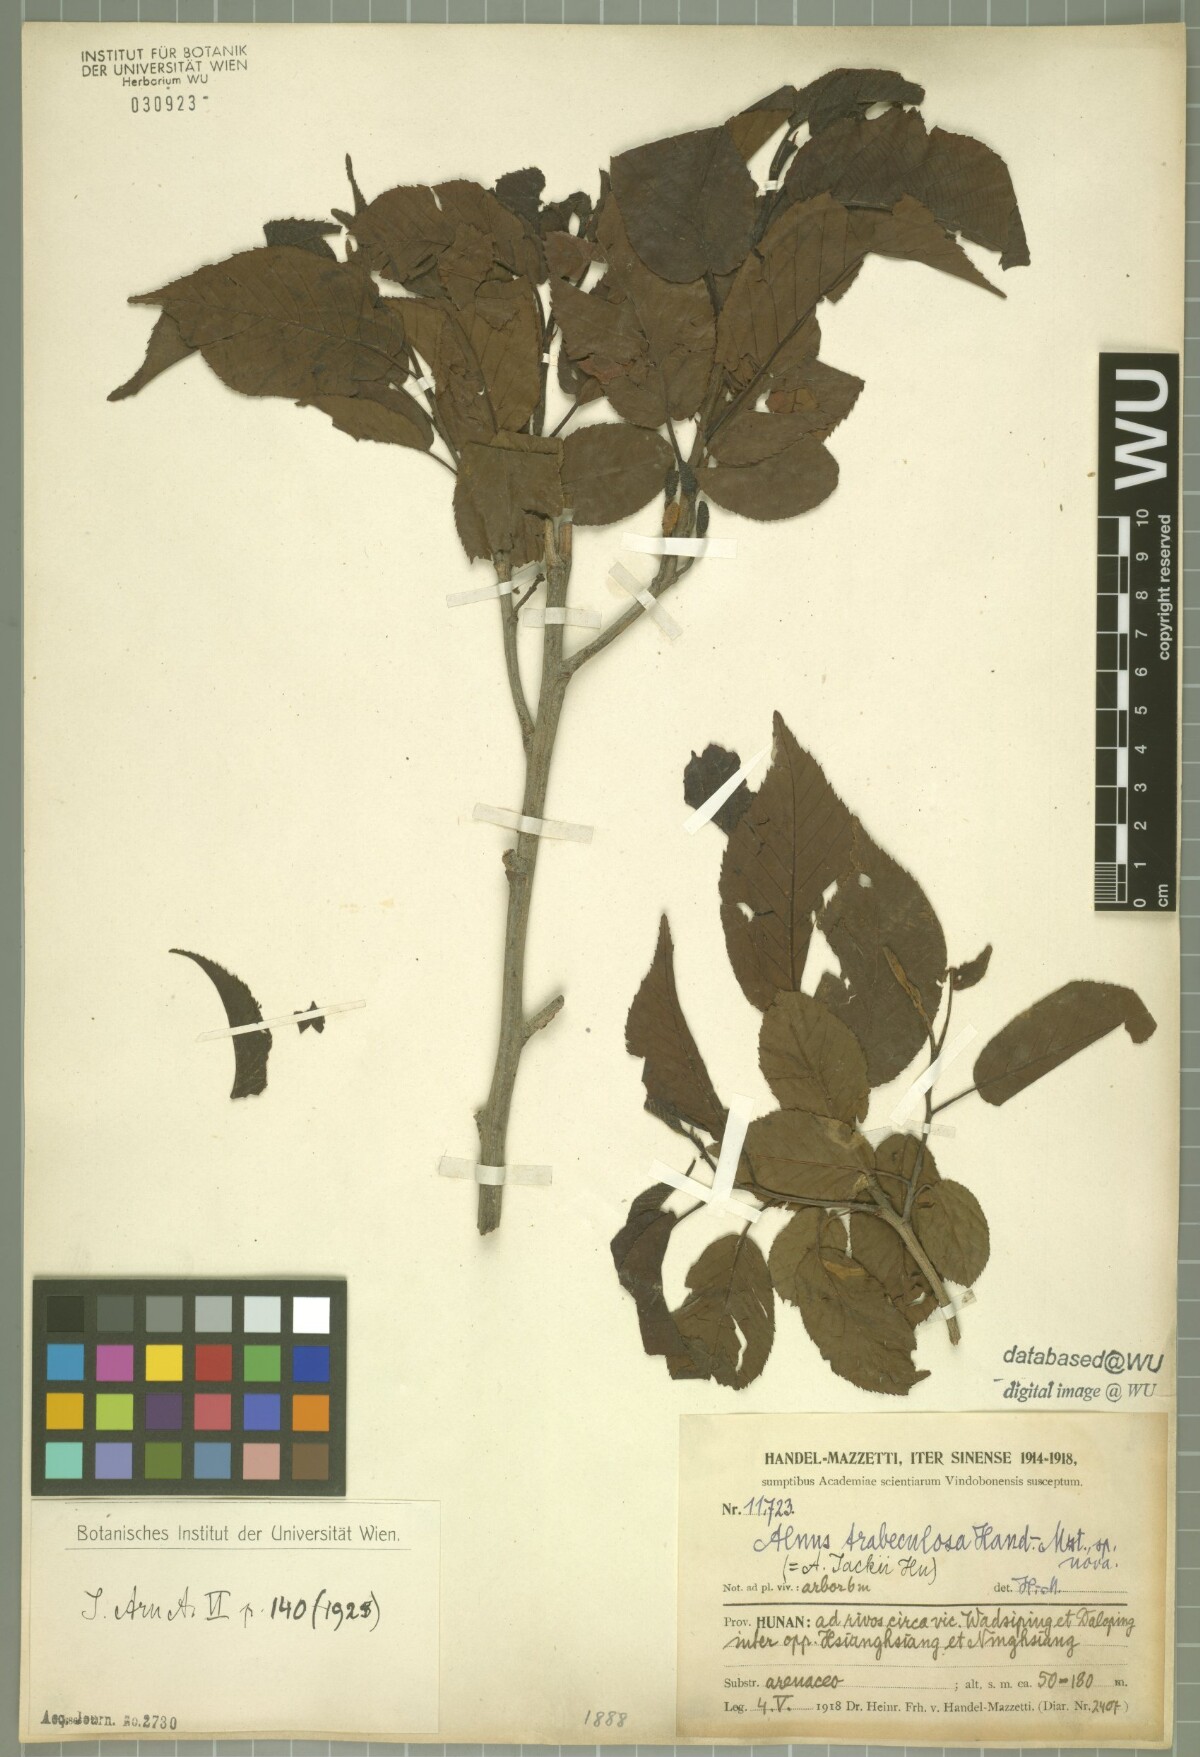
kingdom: Plantae
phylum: Tracheophyta
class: Magnoliopsida
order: Fagales
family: Betulaceae
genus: Alnus
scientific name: Alnus trabeculosa
